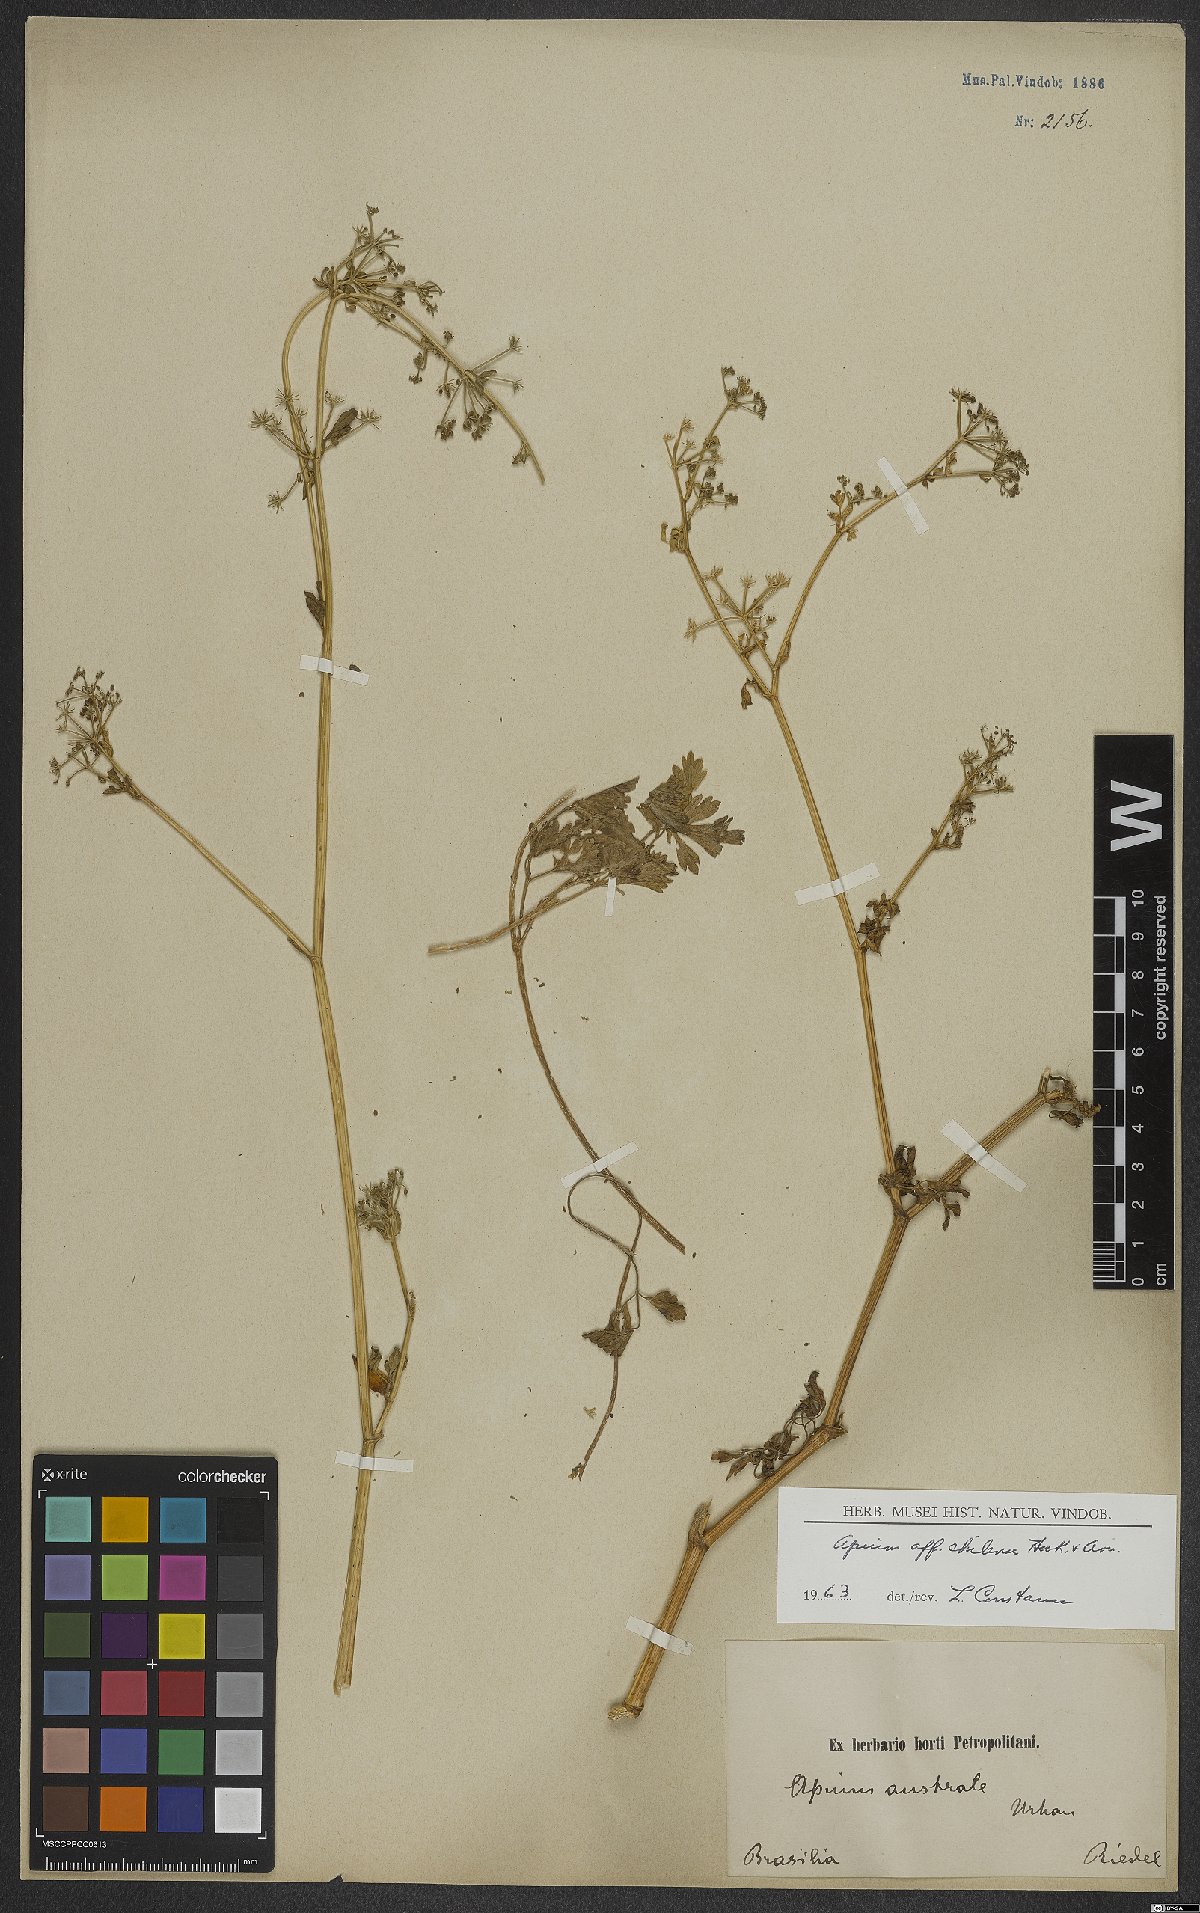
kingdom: Plantae
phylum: Tracheophyta
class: Magnoliopsida
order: Apiales
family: Apiaceae
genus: Apium
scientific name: Apium chilense
